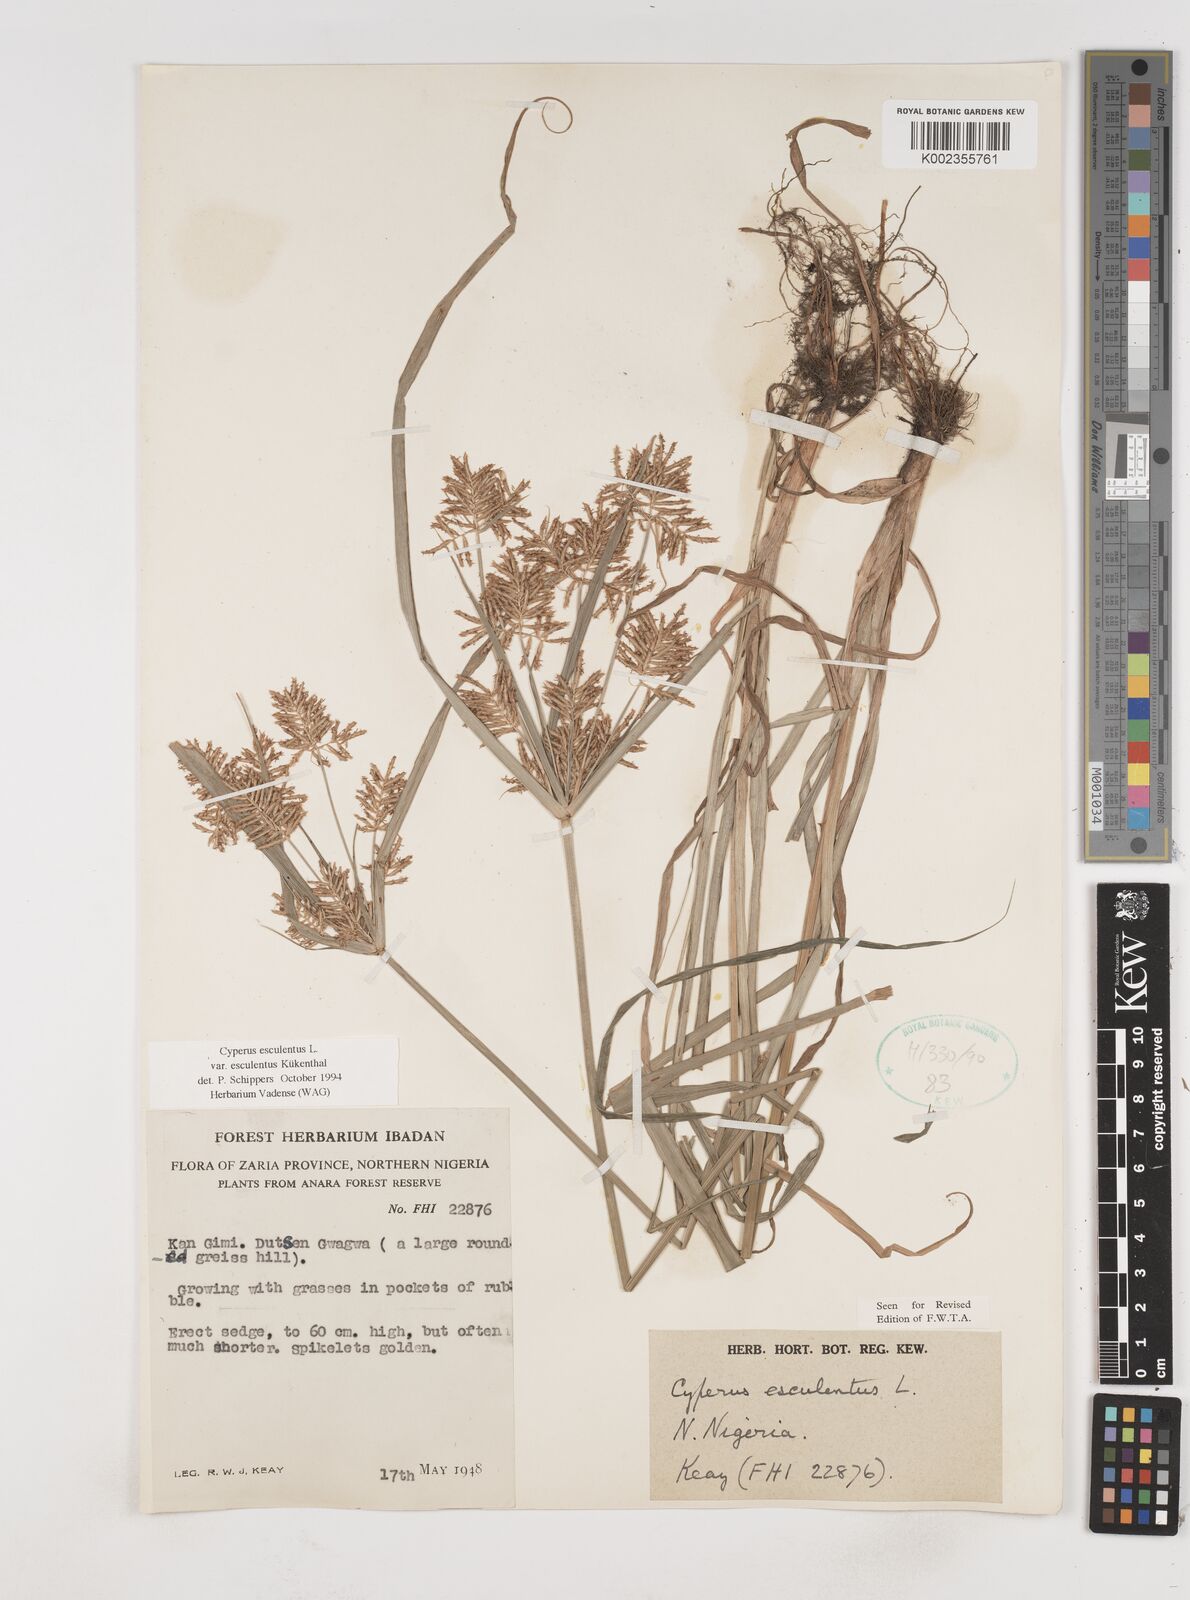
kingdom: Plantae
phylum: Tracheophyta
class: Liliopsida
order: Poales
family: Cyperaceae
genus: Cyperus
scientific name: Cyperus esculentus
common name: Yellow nutsedge
